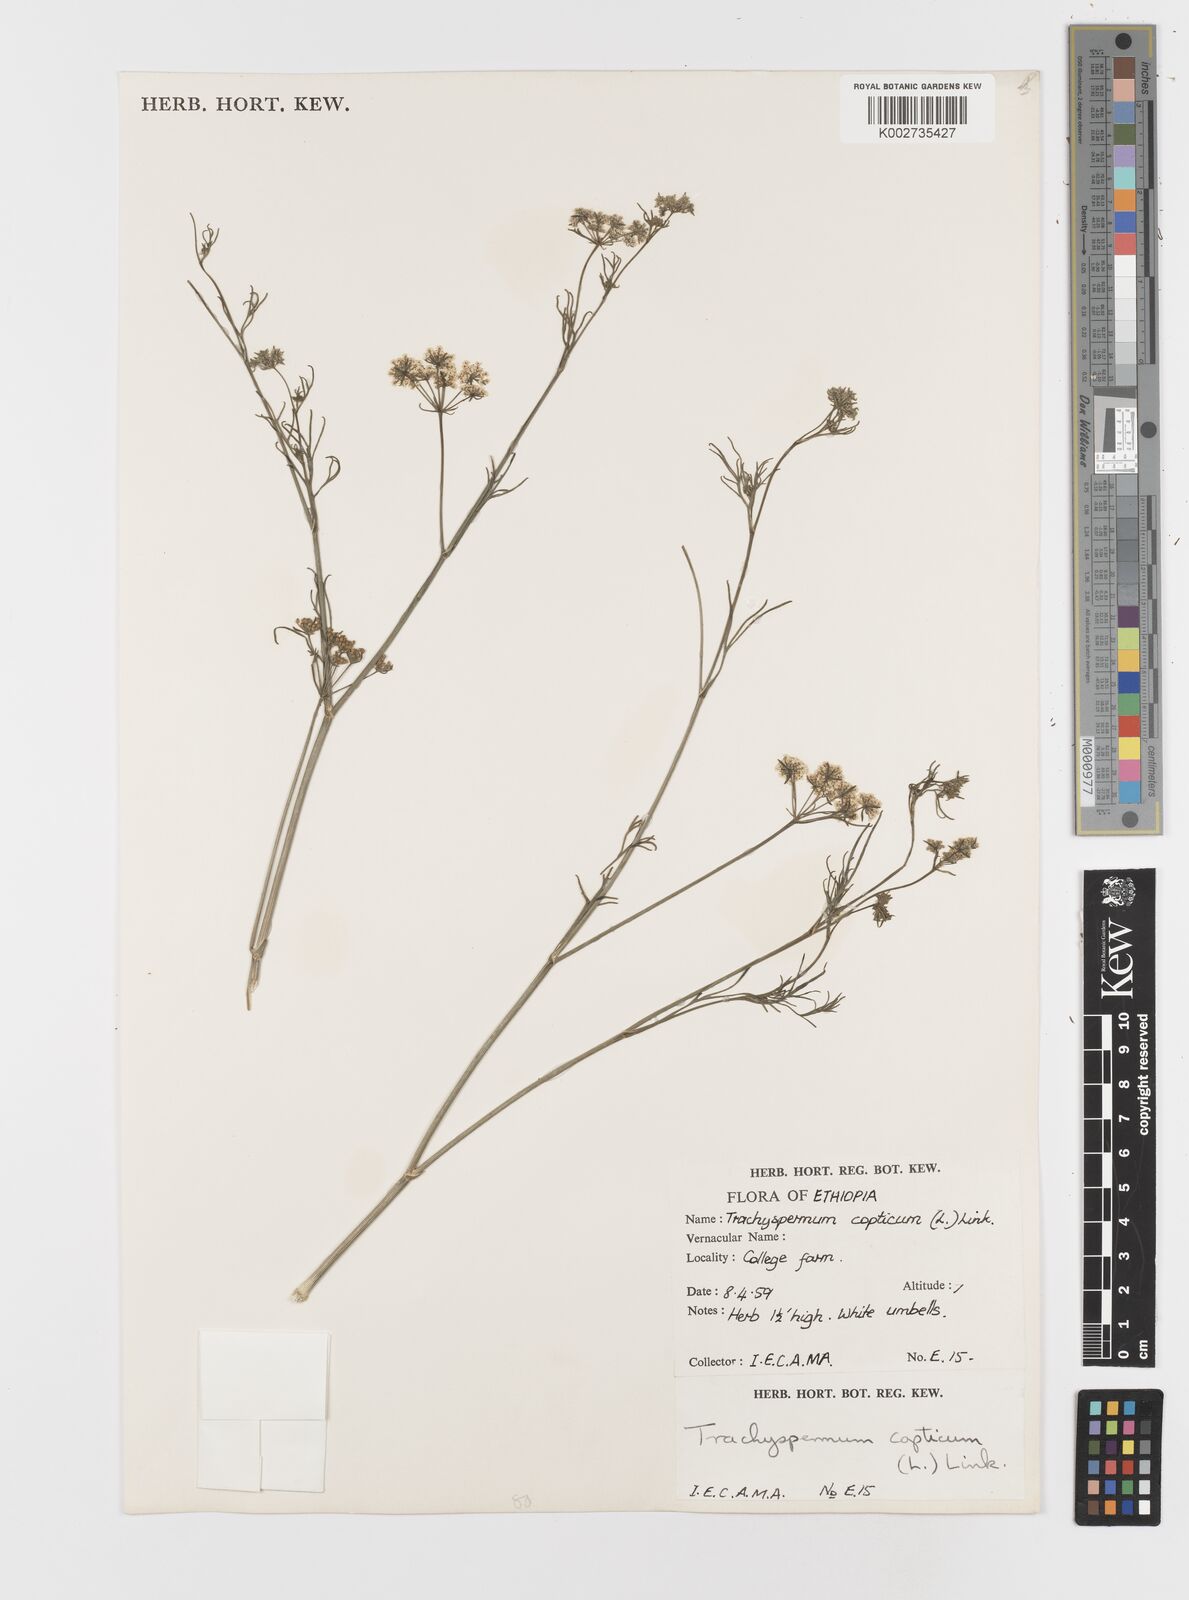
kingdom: Plantae
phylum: Tracheophyta
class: Magnoliopsida
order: Apiales
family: Apiaceae
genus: Trachyspermum
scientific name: Trachyspermum ammi
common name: Ajowan
